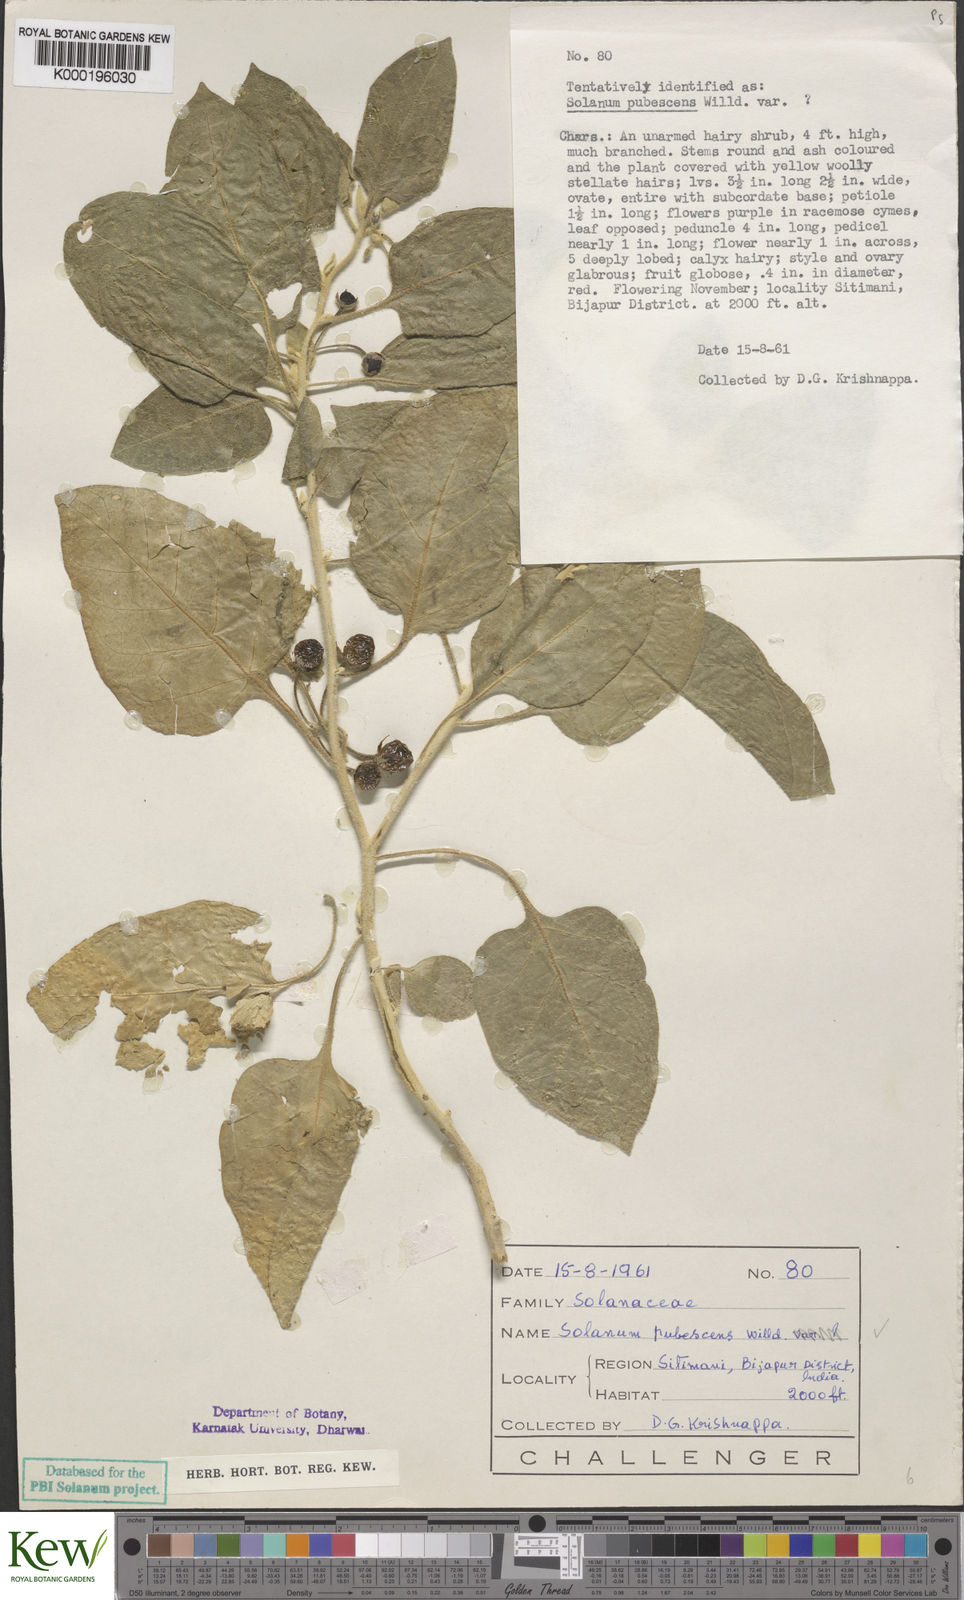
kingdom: Plantae
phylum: Tracheophyta
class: Magnoliopsida
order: Solanales
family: Solanaceae
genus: Solanum
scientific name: Solanum pubescens
